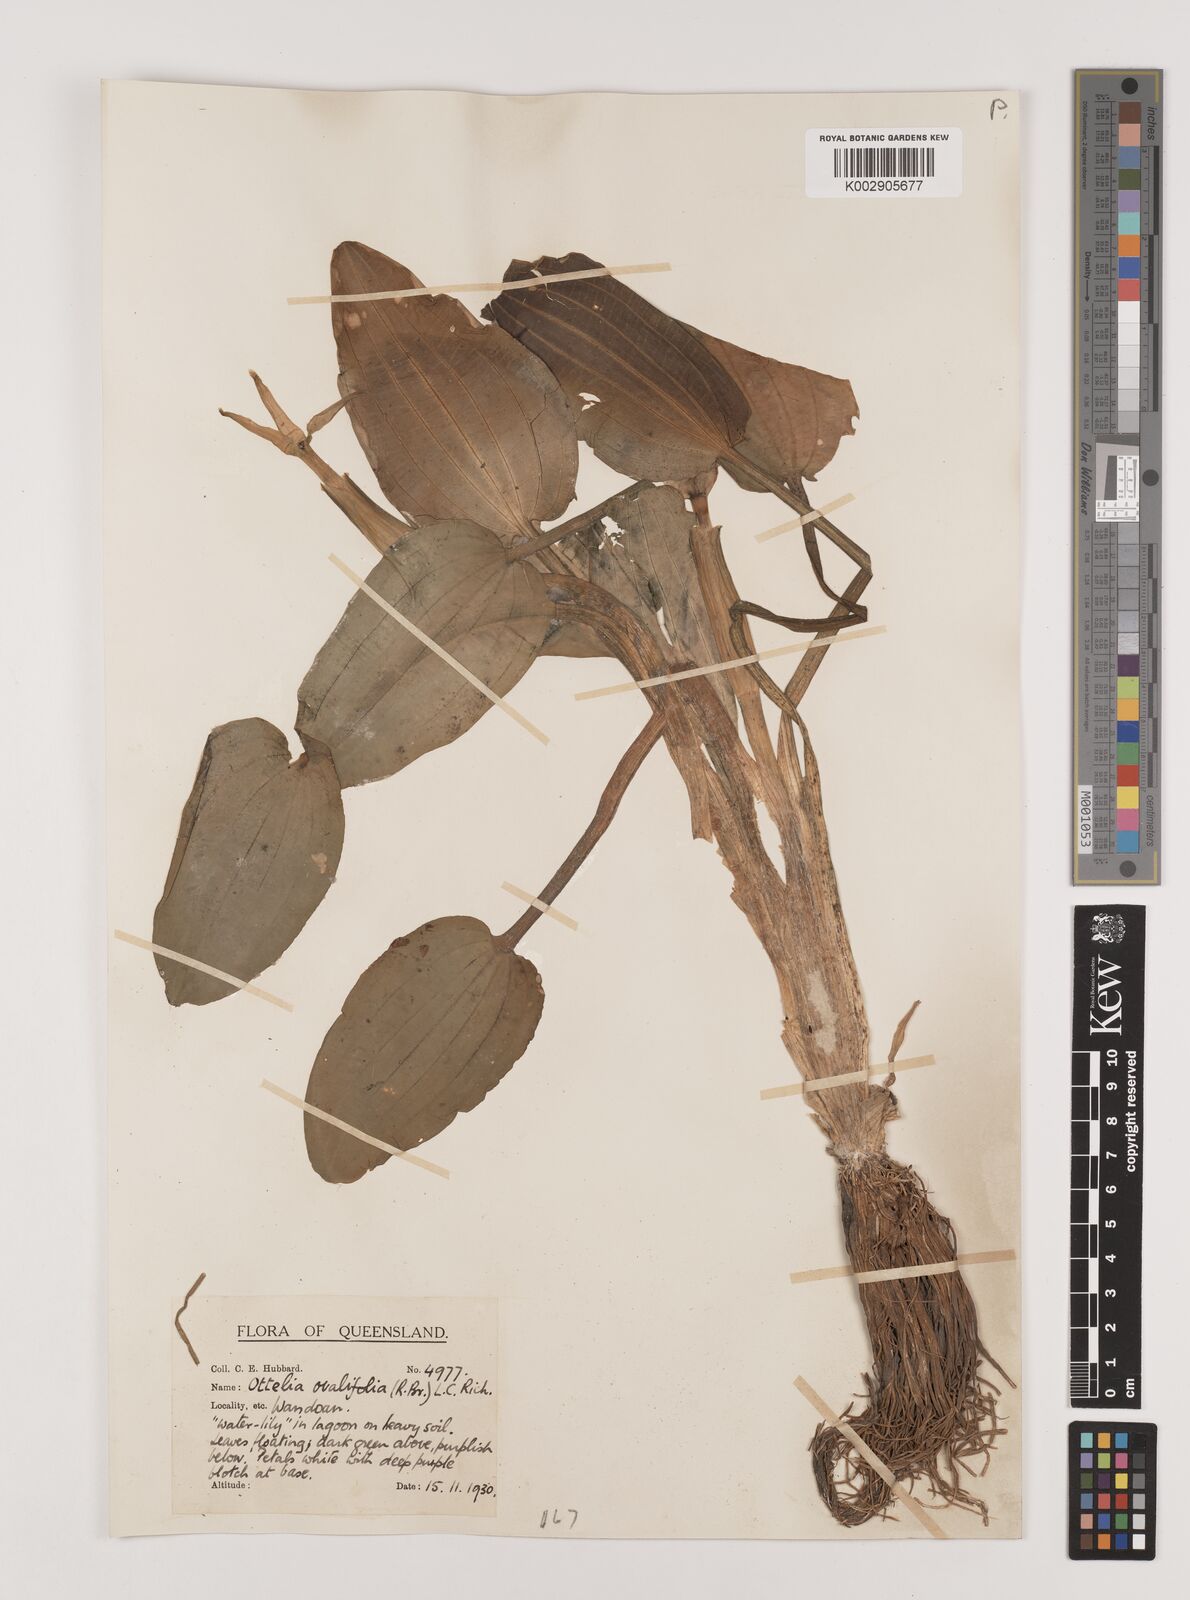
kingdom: Plantae
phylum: Tracheophyta
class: Liliopsida
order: Alismatales
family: Hydrocharitaceae
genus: Ottelia
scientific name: Ottelia ovalifolia
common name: Swamp-lily
